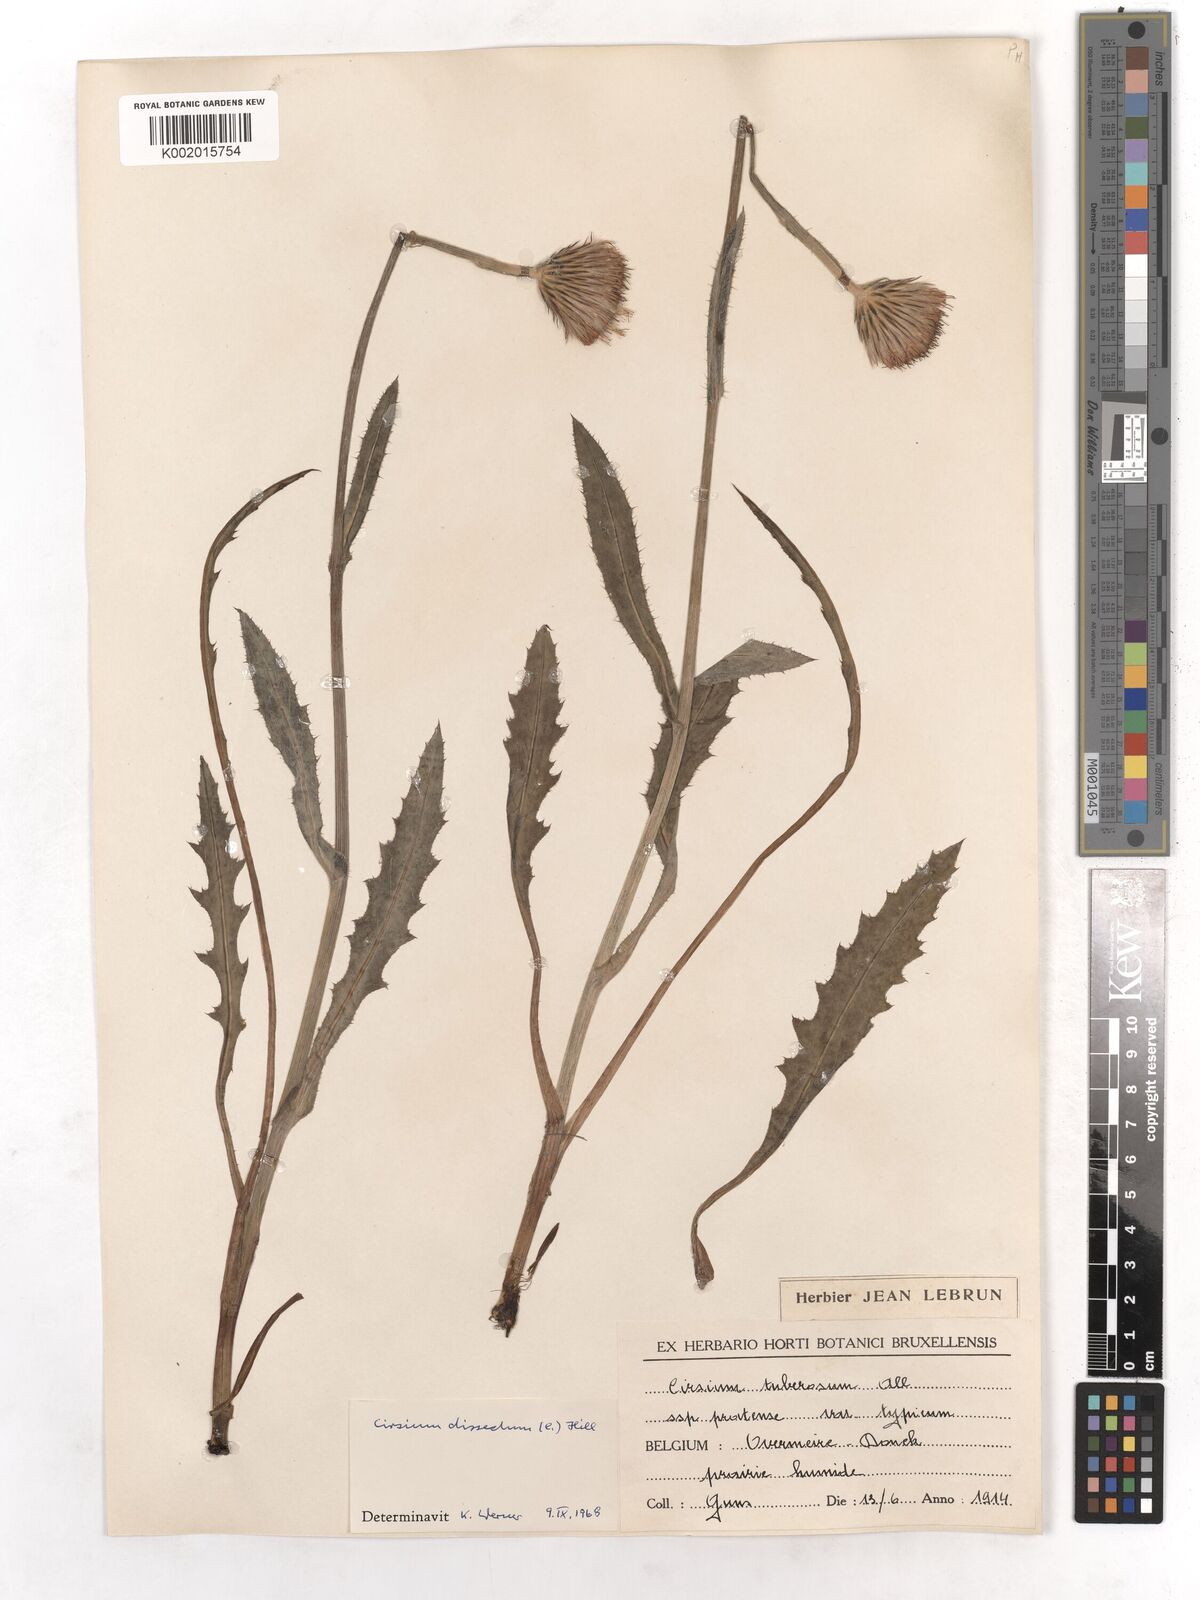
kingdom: Plantae
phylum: Tracheophyta
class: Magnoliopsida
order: Asterales
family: Asteraceae
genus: Cirsium
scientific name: Cirsium dissectum
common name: Meadow thistle
